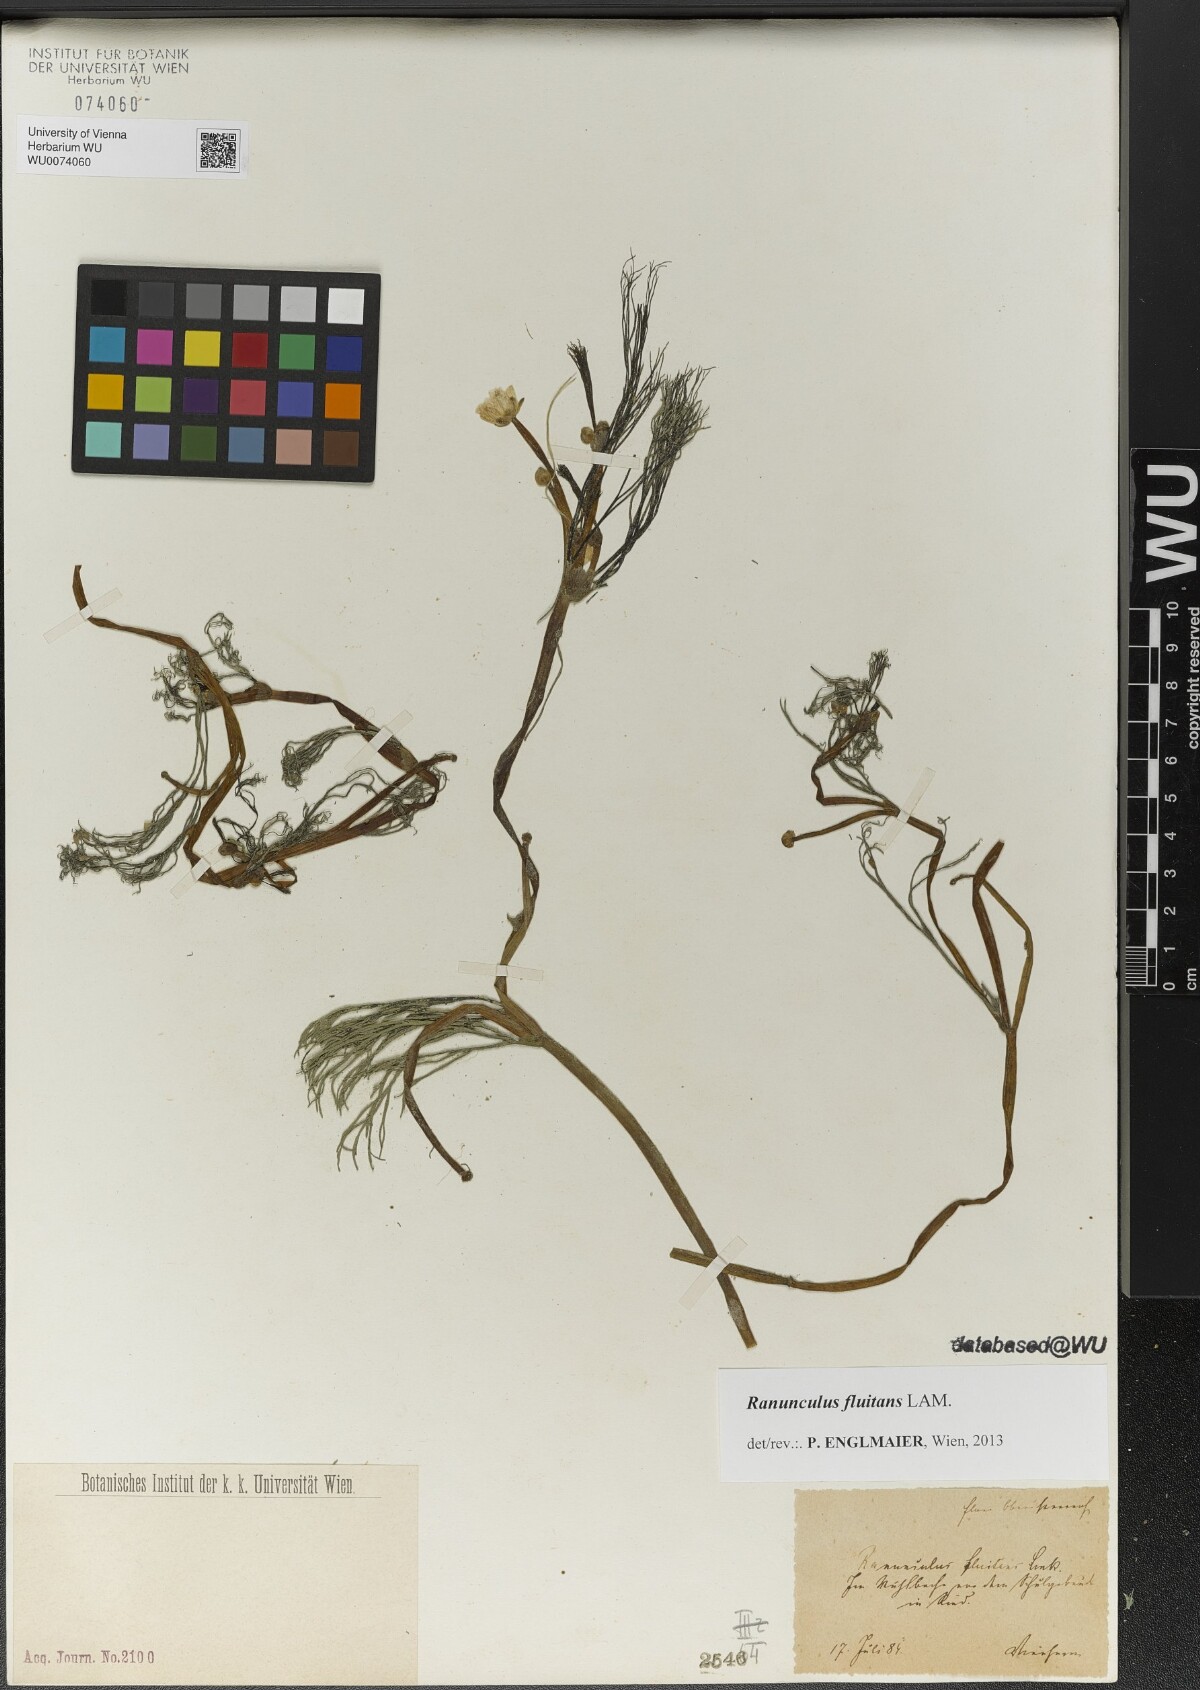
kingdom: Plantae
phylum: Tracheophyta
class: Magnoliopsida
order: Ranunculales
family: Ranunculaceae
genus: Ranunculus
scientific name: Ranunculus fluitans
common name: River water-crowfoot
